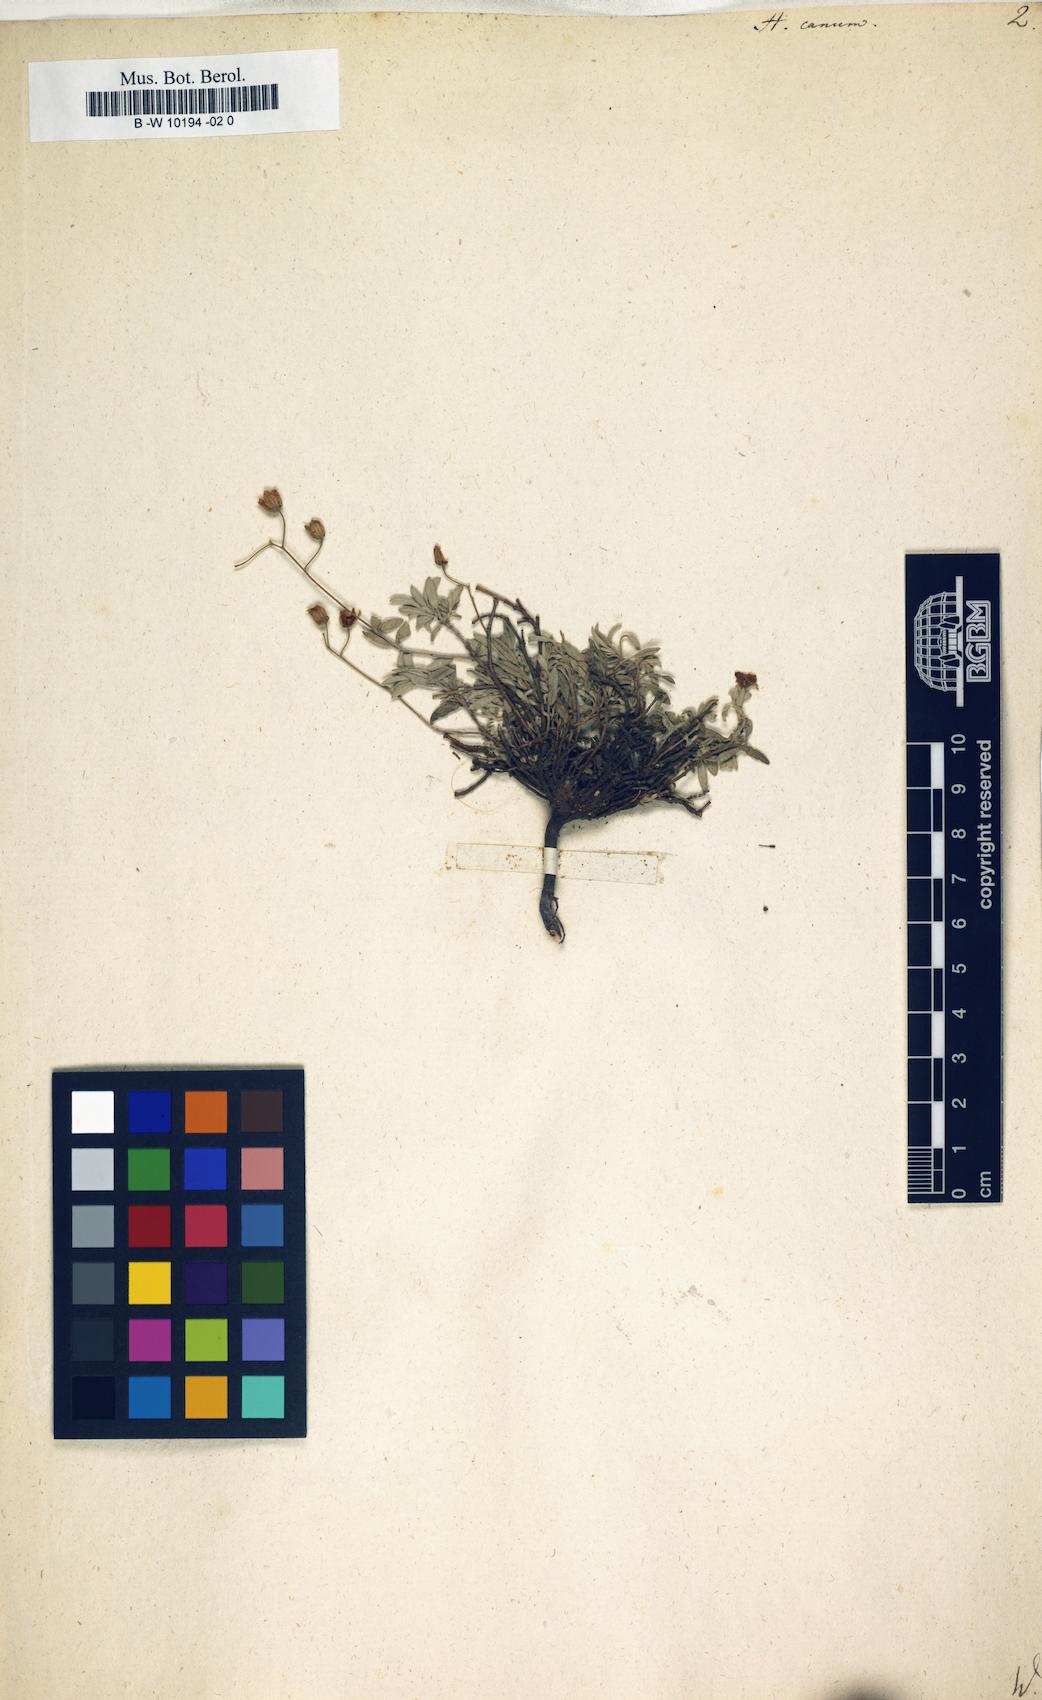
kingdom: Plantae
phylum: Tracheophyta
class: Magnoliopsida
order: Malvales
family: Cistaceae
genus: Helianthemum
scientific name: Helianthemum canum
